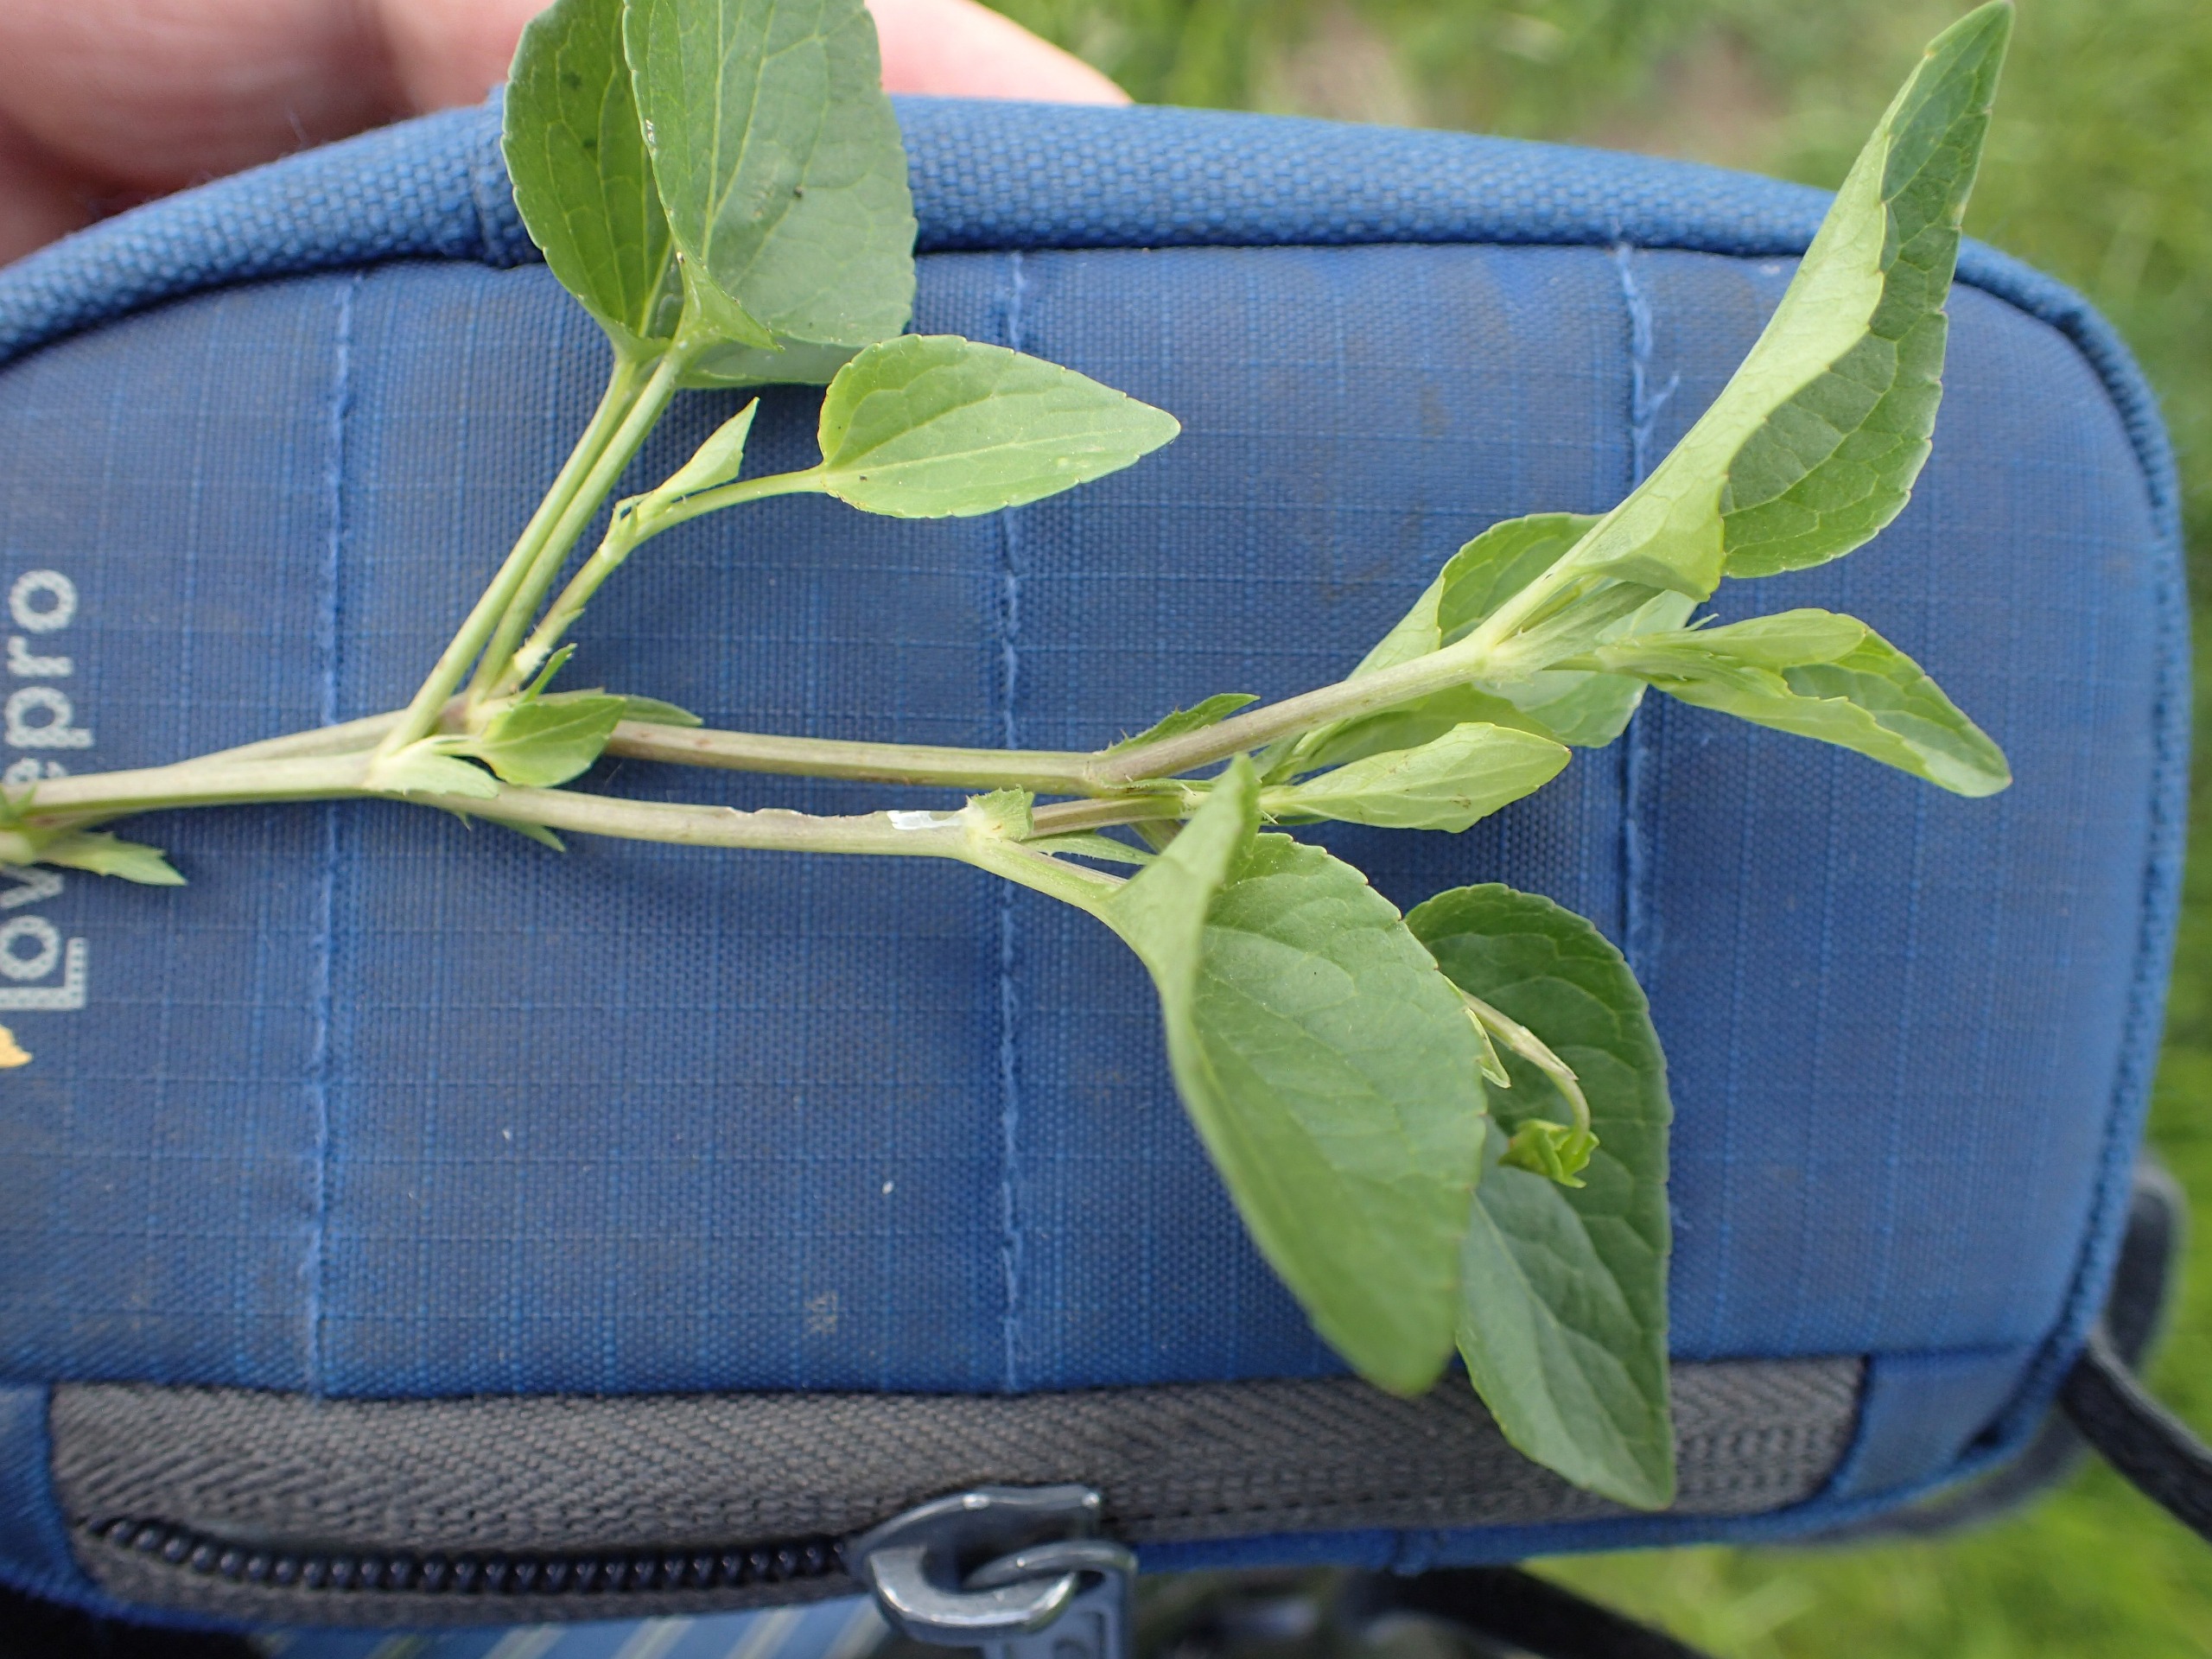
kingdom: Plantae
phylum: Tracheophyta
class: Magnoliopsida
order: Malpighiales
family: Violaceae
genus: Viola
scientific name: Viola canina
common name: Hunde-viol
